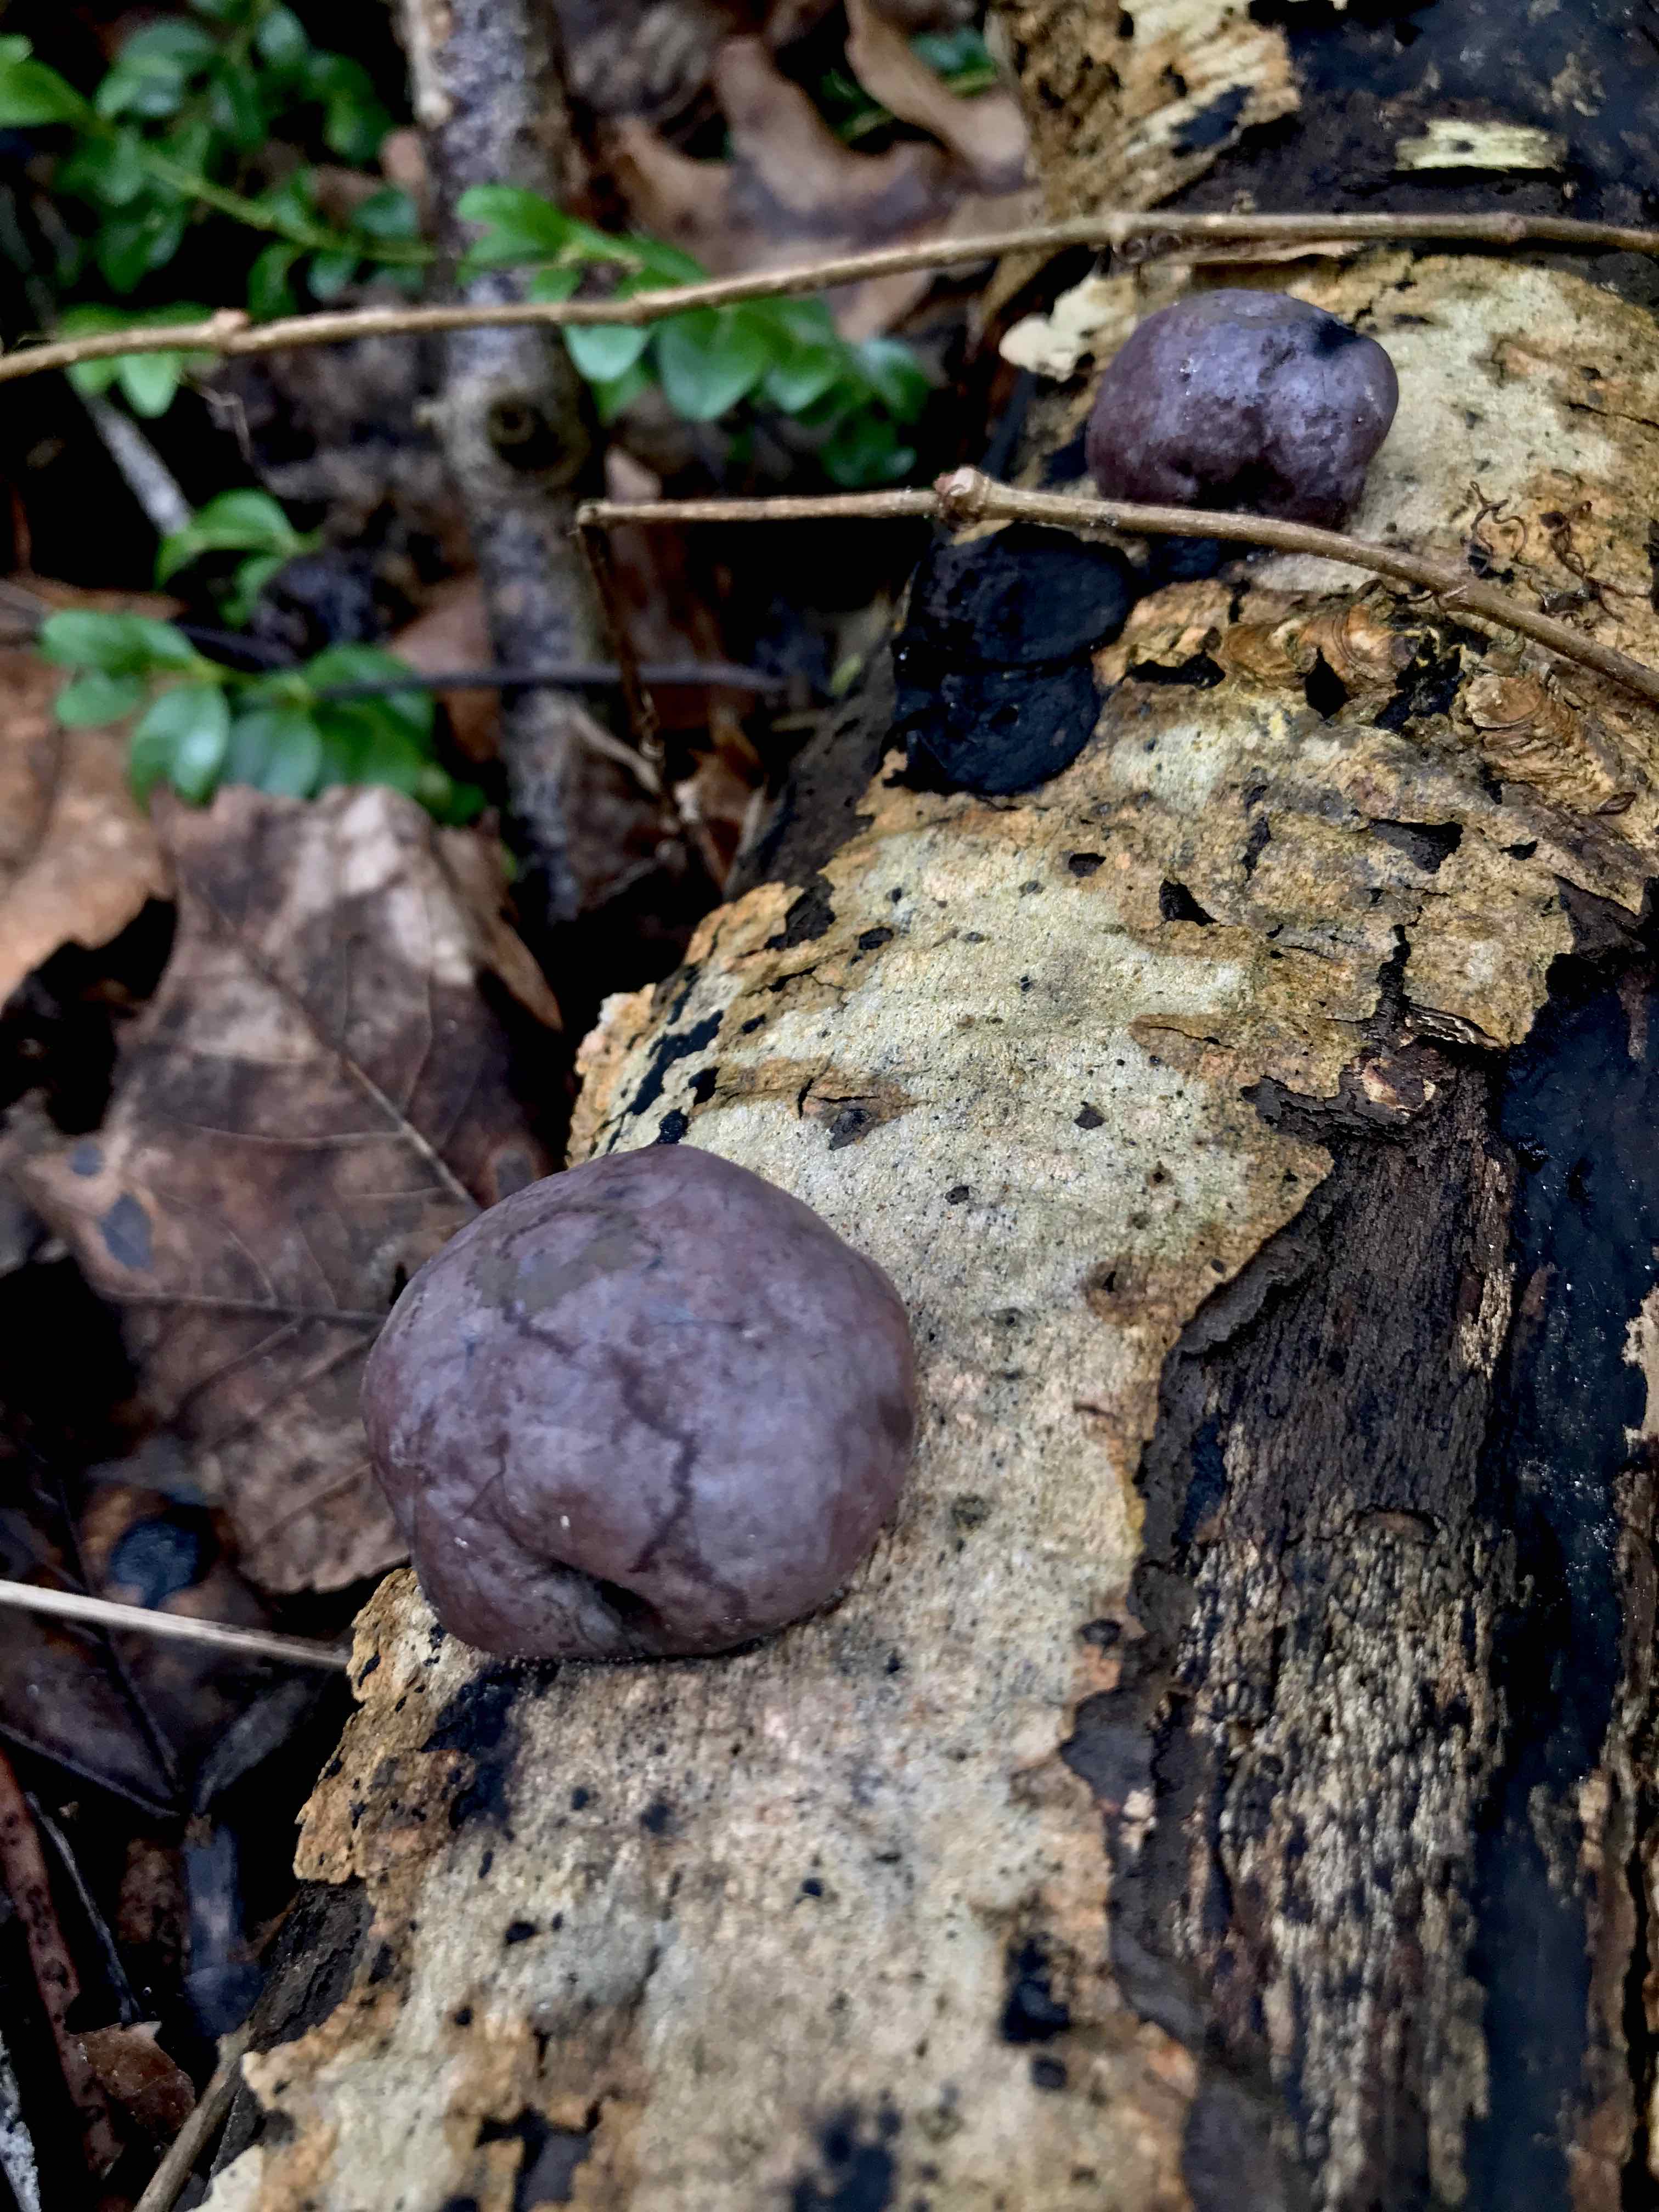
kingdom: Fungi
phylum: Ascomycota
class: Sordariomycetes
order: Xylariales
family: Hypoxylaceae
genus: Daldinia
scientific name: Daldinia concentrica
